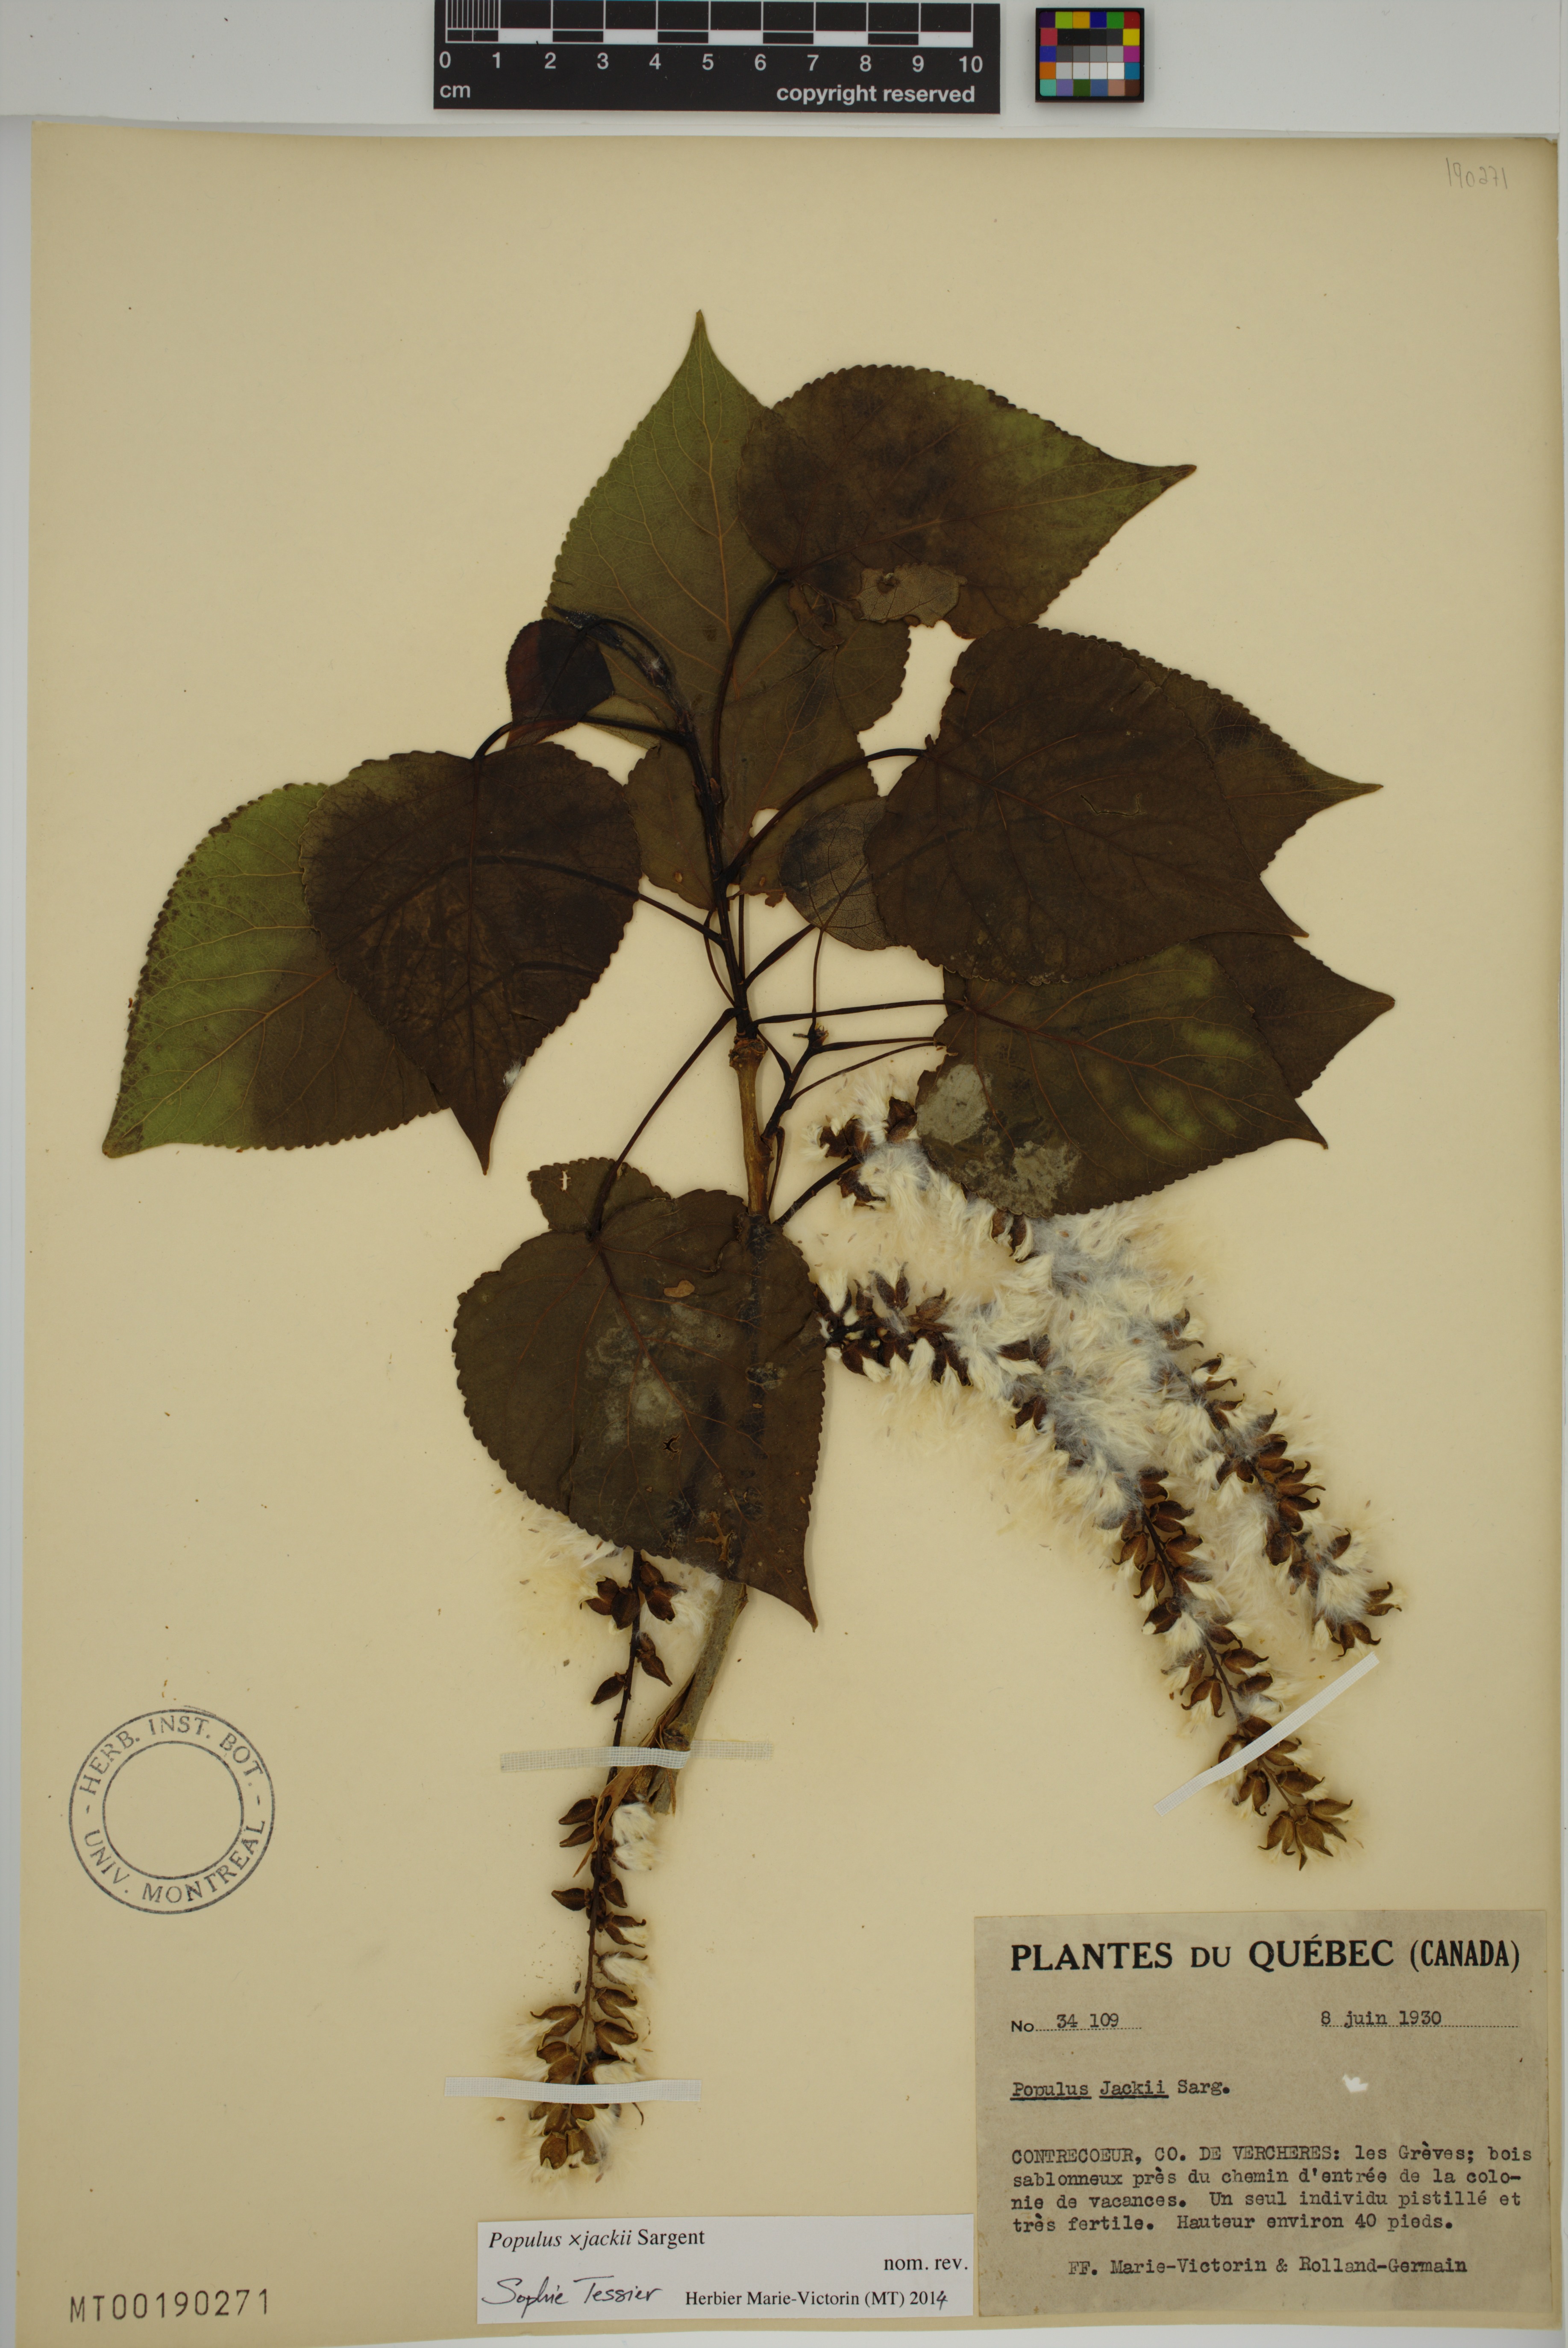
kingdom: Plantae
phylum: Tracheophyta
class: Magnoliopsida
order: Malpighiales
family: Salicaceae
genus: Populus
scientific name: Populus jackii
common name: Balm-of-gilead
